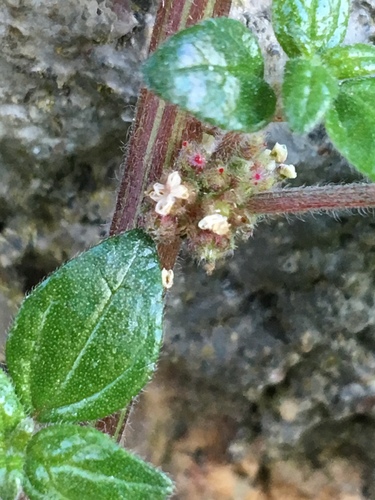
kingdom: Plantae
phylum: Tracheophyta
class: Magnoliopsida
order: Rosales
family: Urticaceae
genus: Parietaria
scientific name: Parietaria judaica
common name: Pellitory-of-the-wall
